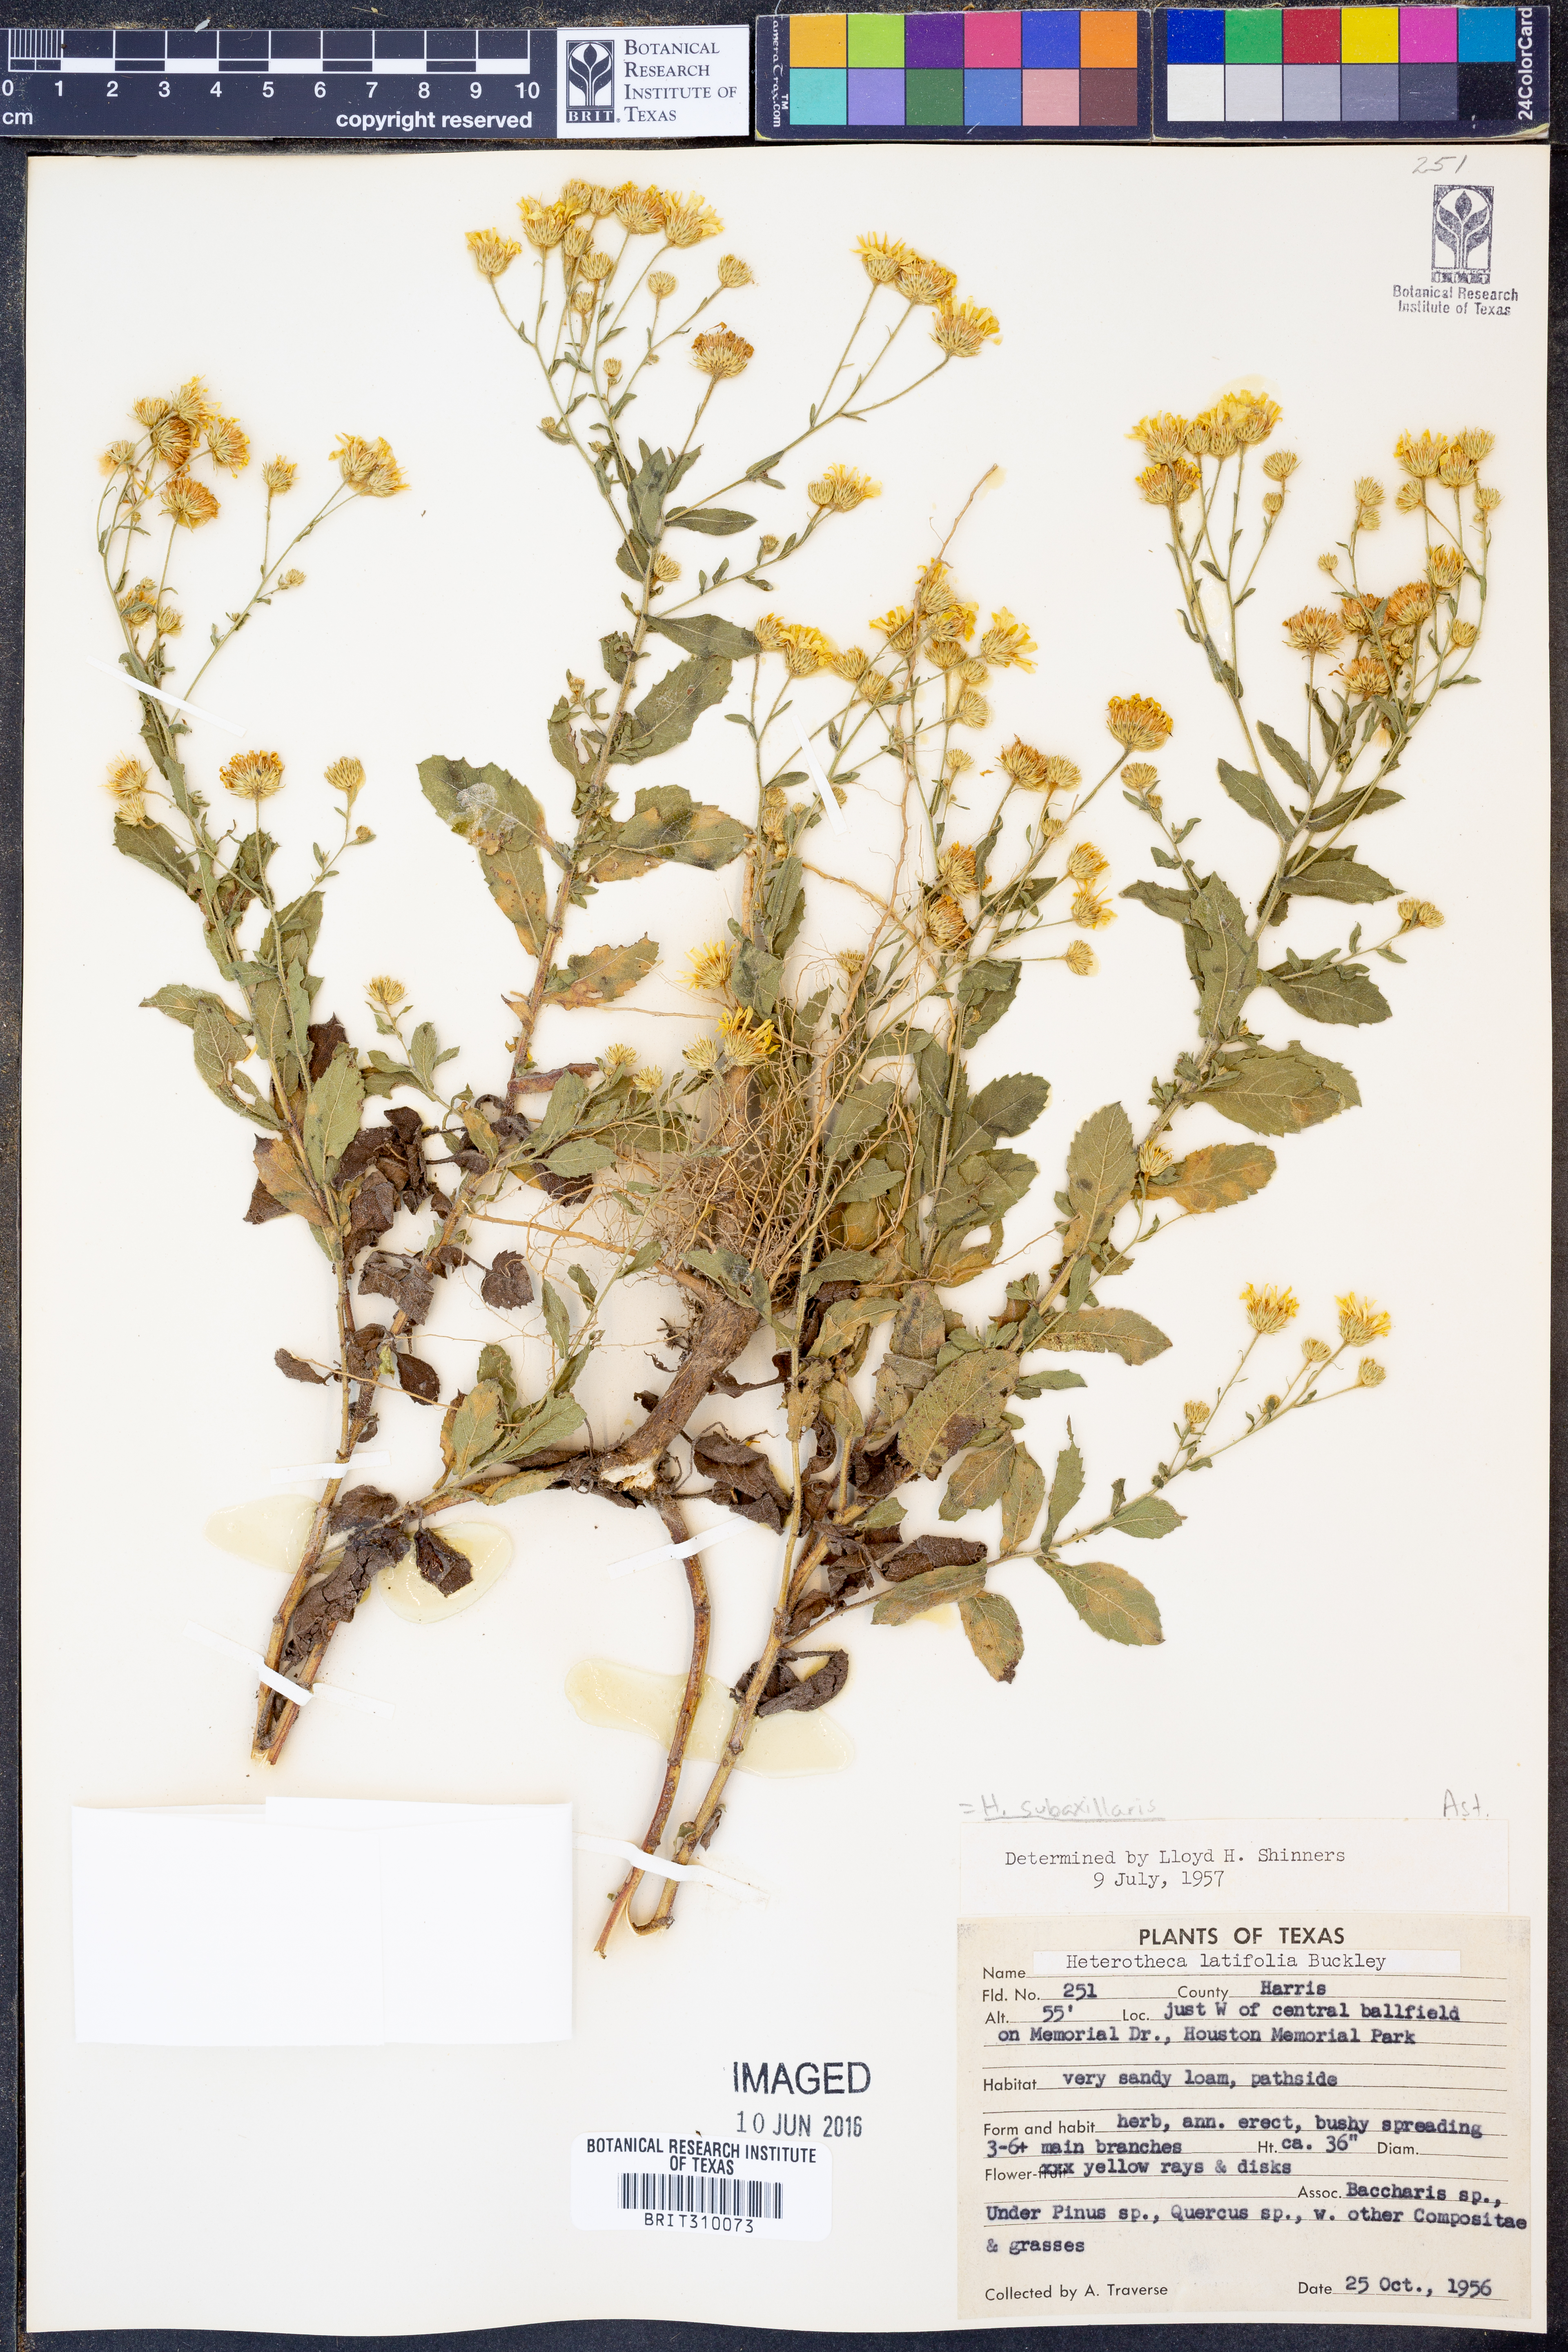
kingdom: Plantae
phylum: Tracheophyta
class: Magnoliopsida
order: Asterales
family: Asteraceae
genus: Heterotheca
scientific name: Heterotheca subaxillaris
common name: Camphorweed
